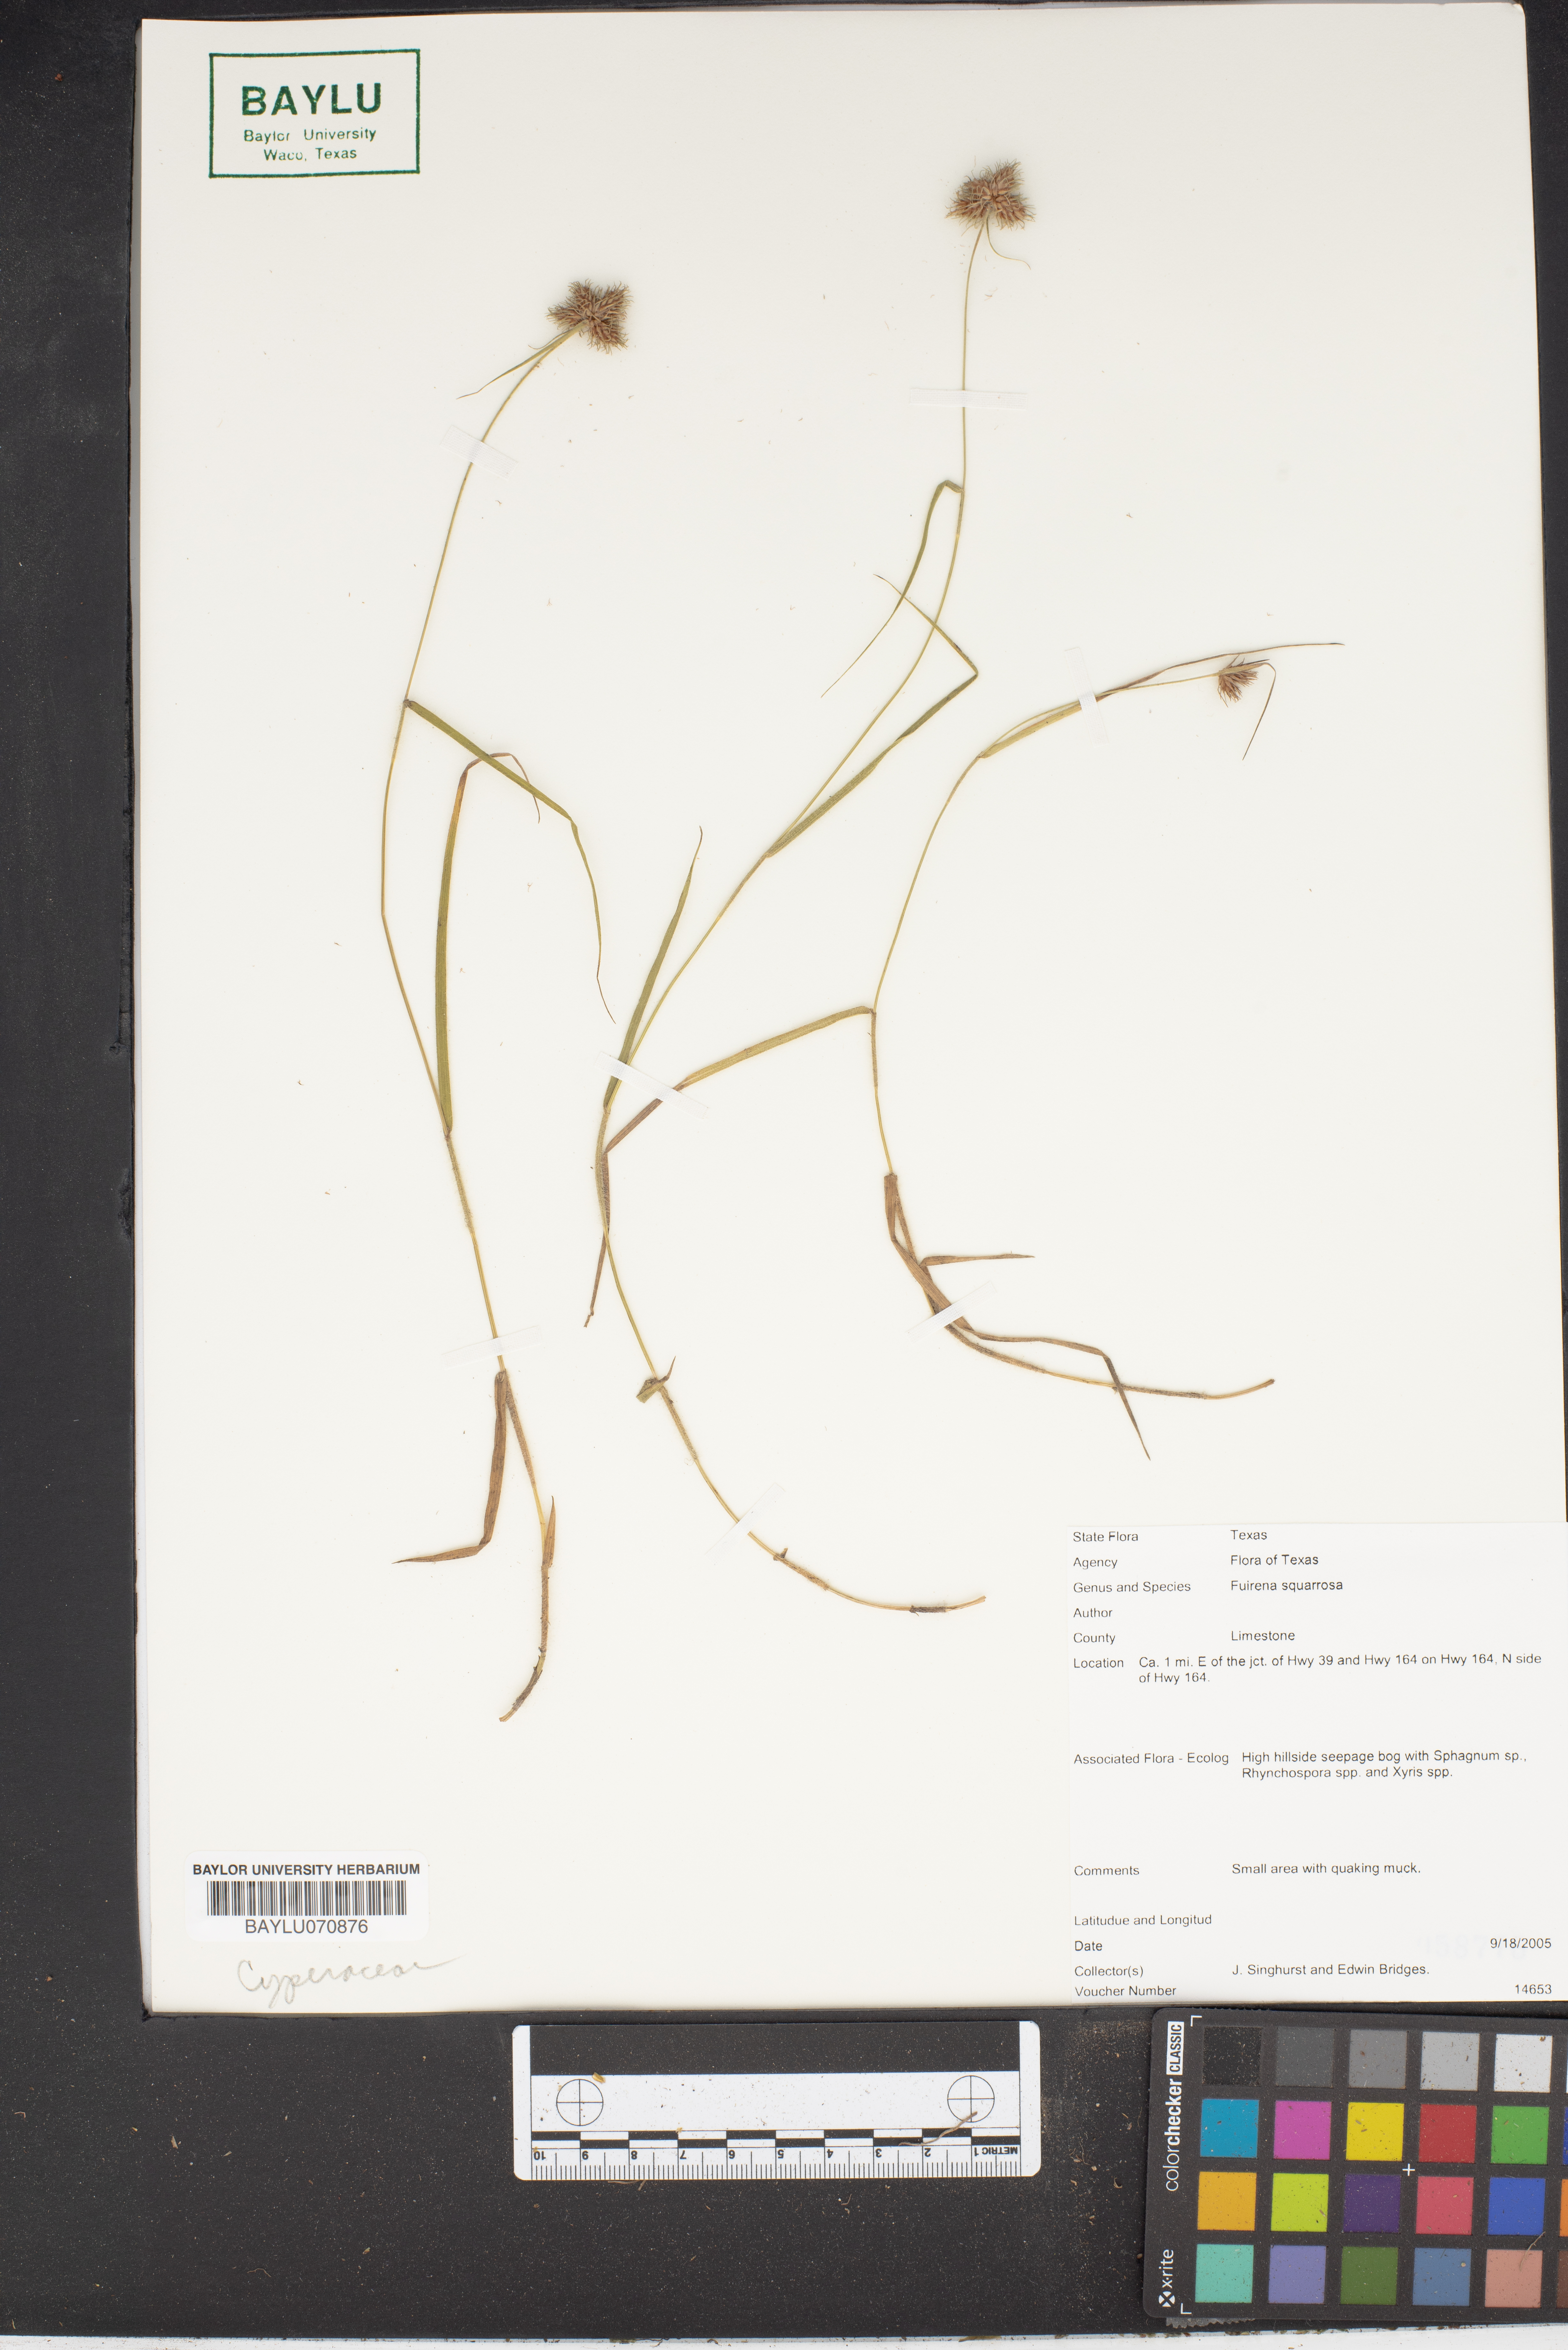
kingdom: Plantae
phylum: Tracheophyta
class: Liliopsida
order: Poales
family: Cyperaceae
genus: Fuirena
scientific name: Fuirena squarrosa
